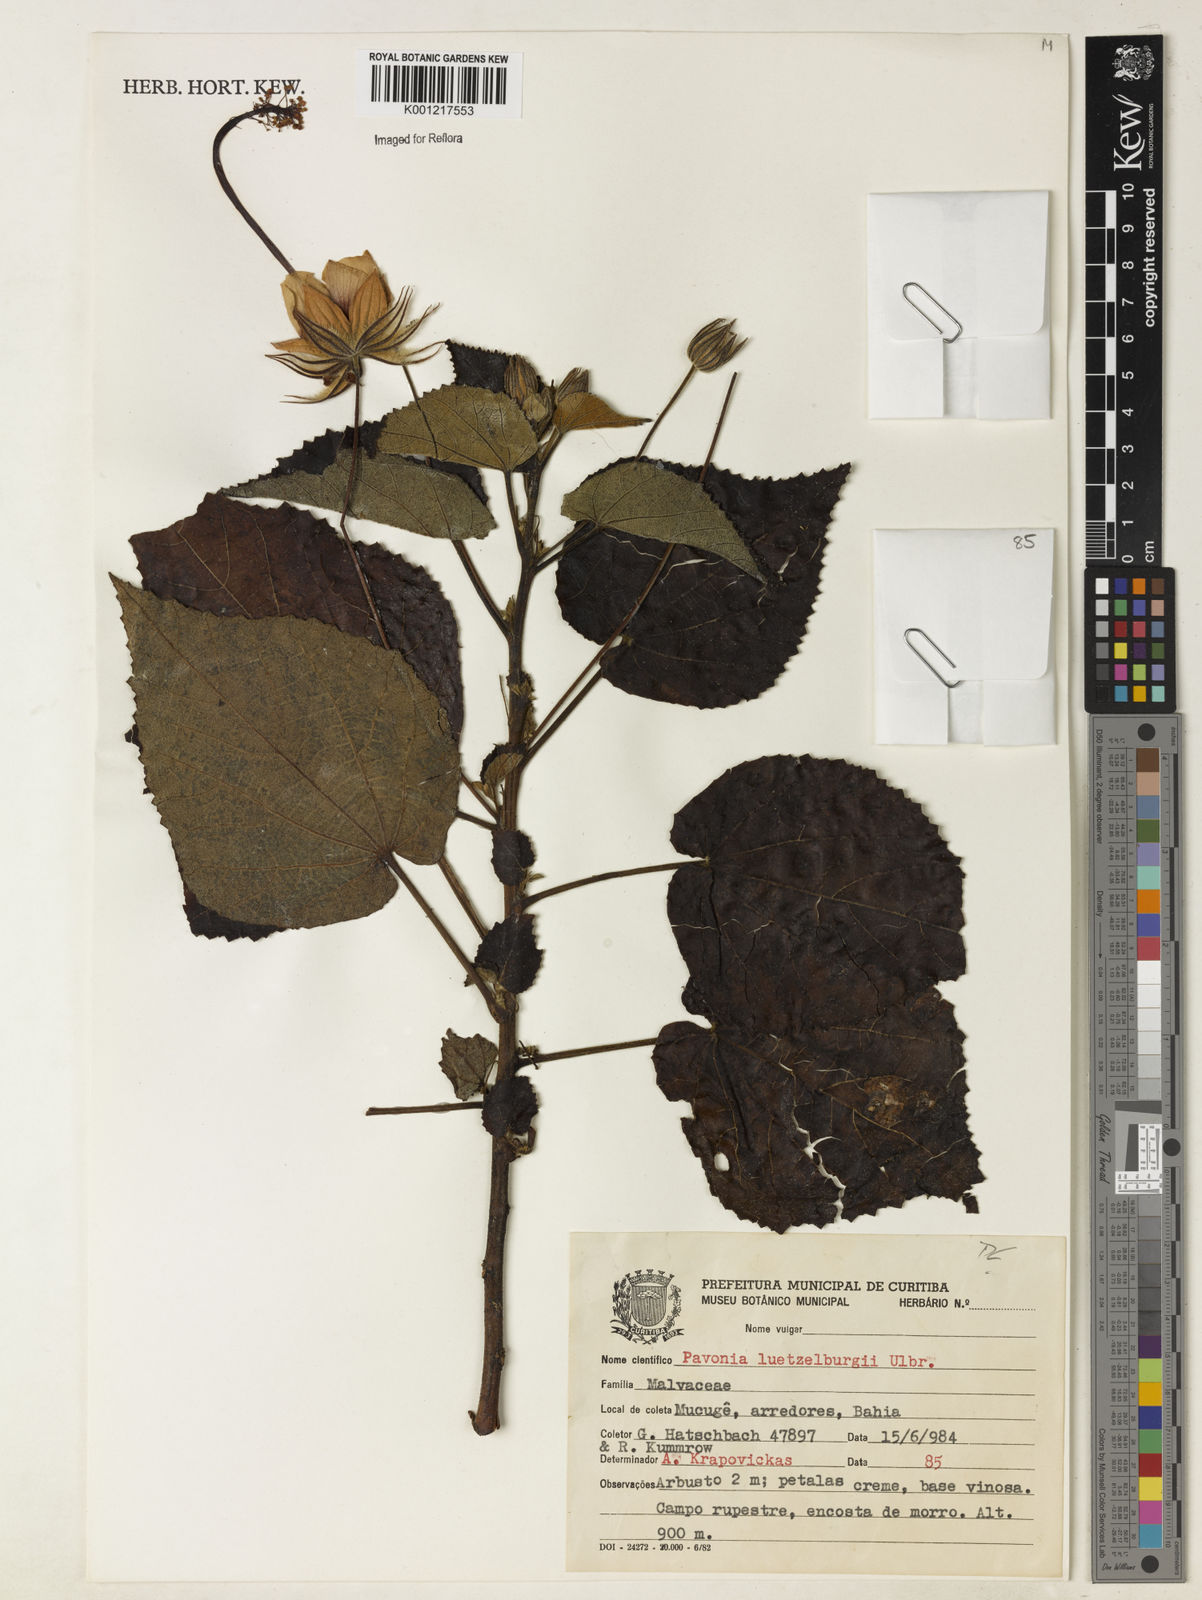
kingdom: Plantae
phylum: Tracheophyta
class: Magnoliopsida
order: Malvales
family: Malvaceae
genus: Pavonia
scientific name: Pavonia luetzelburgii
